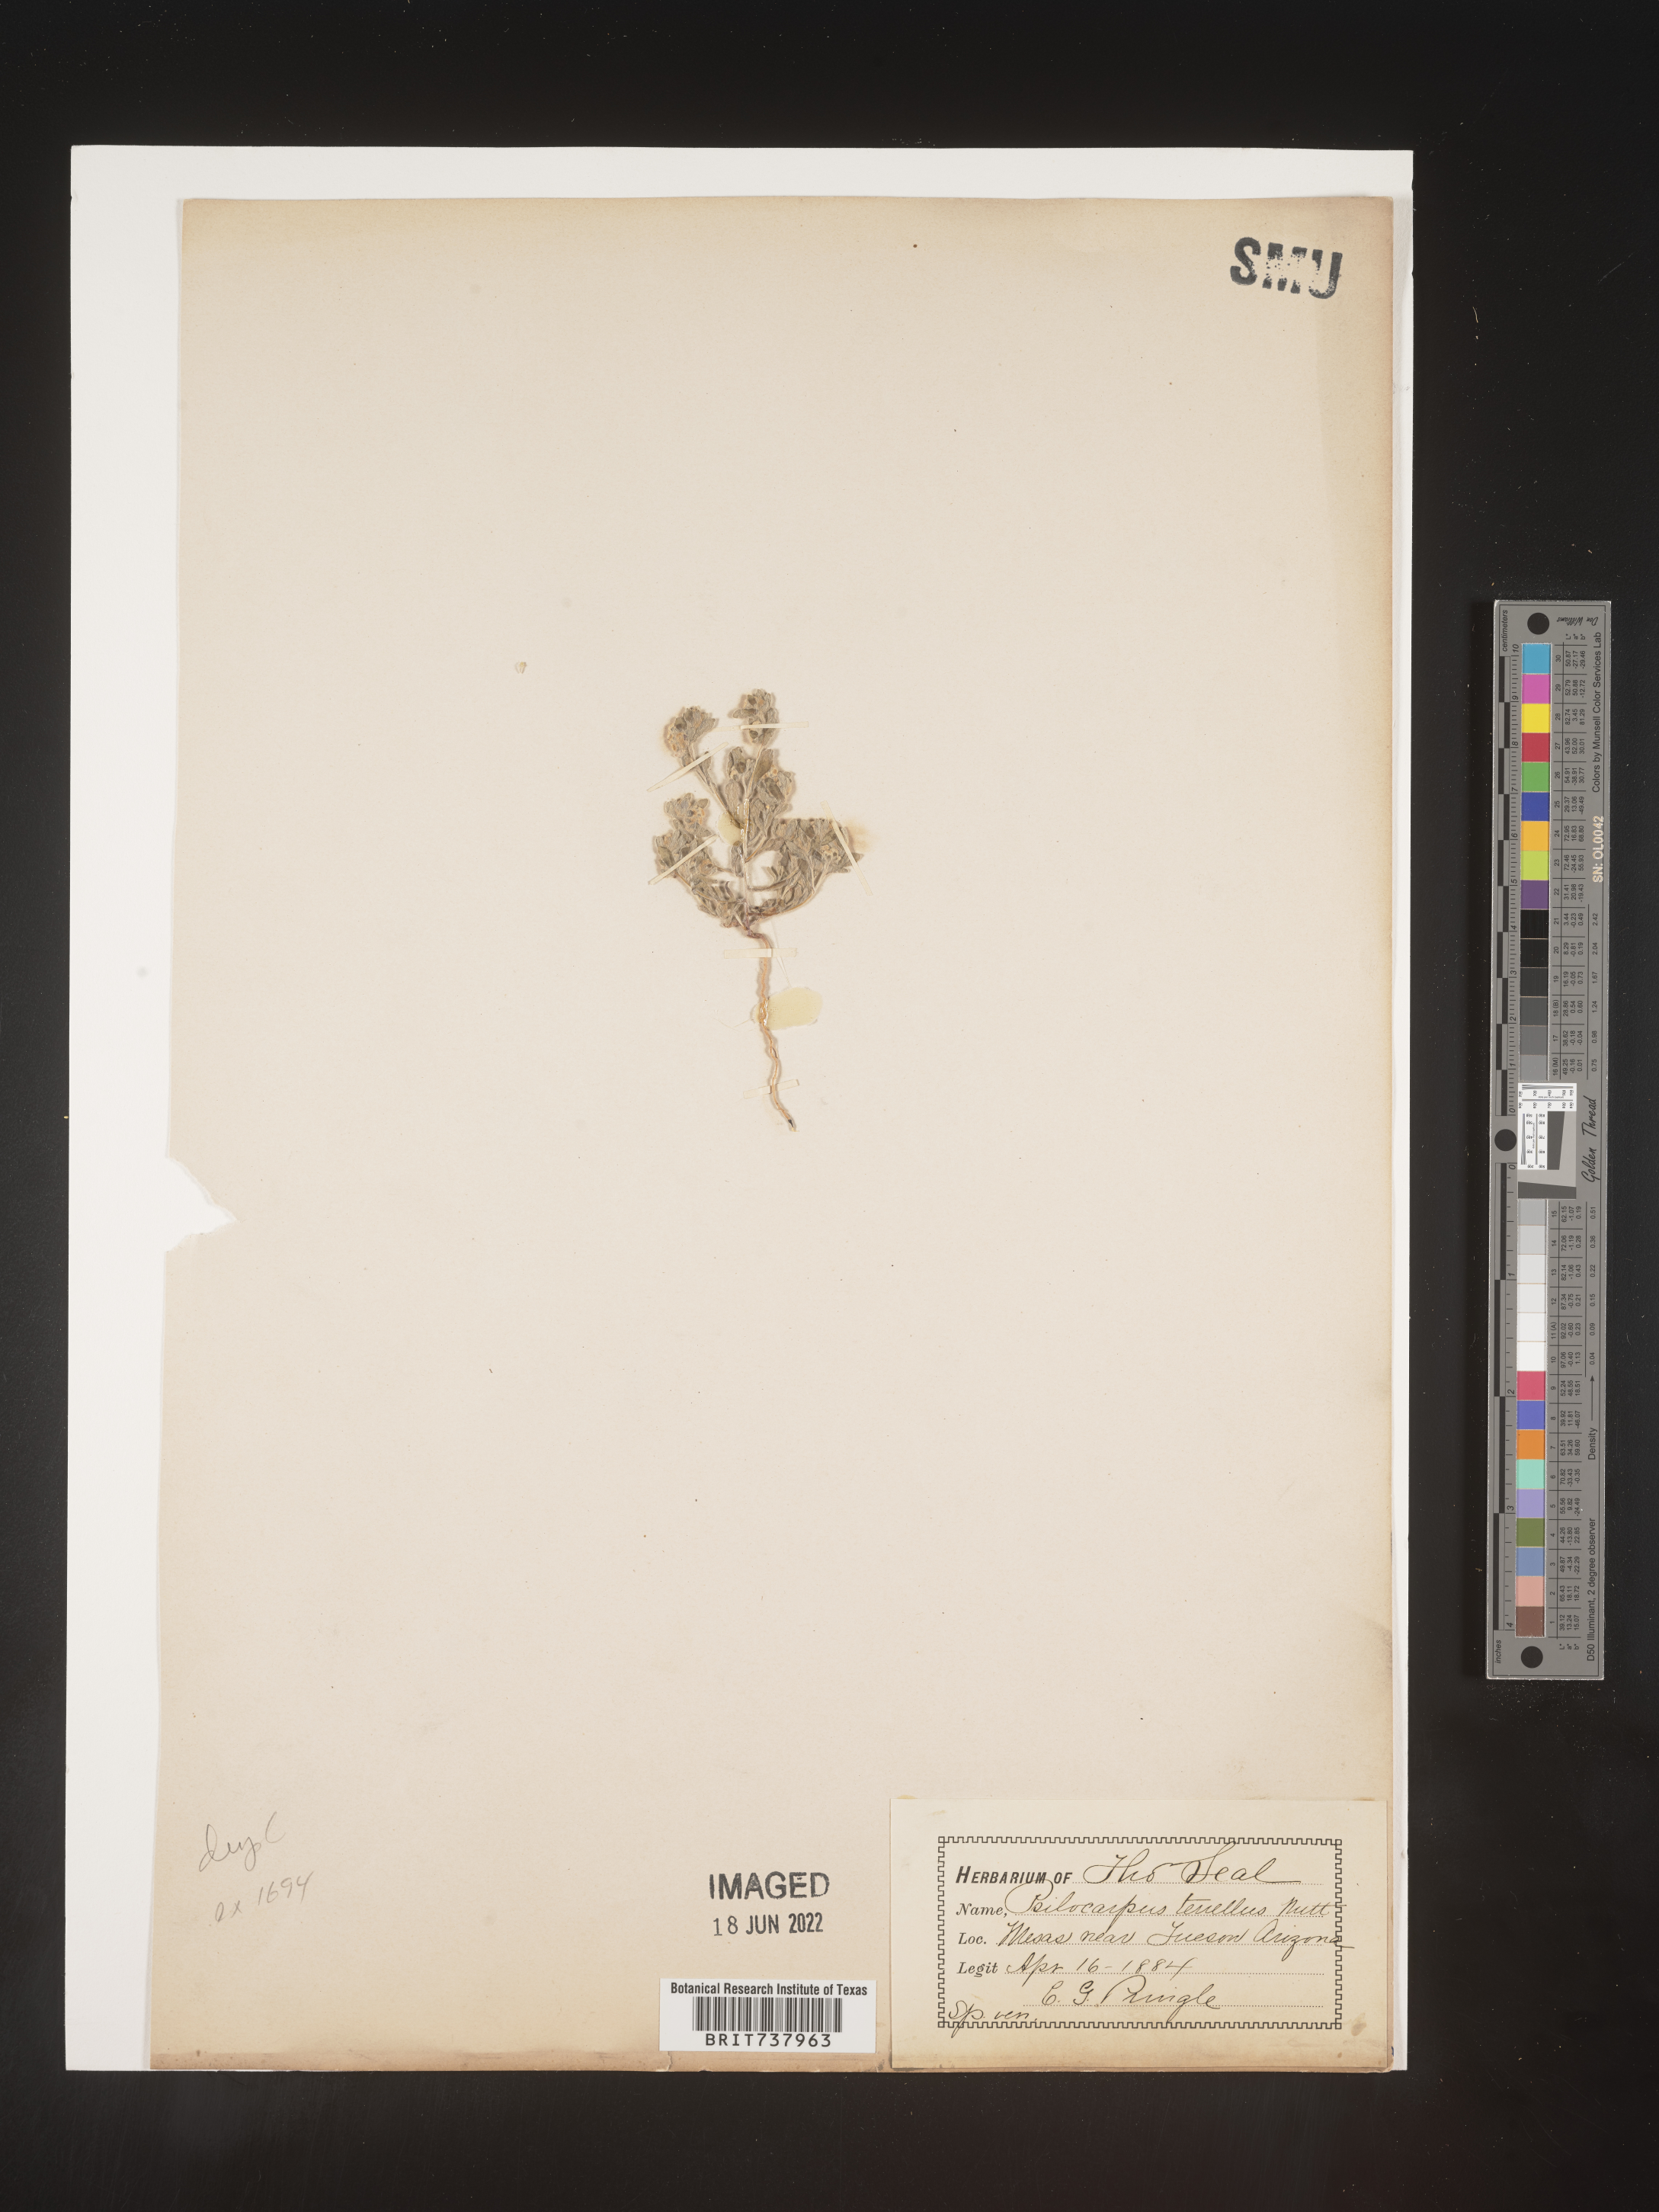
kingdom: Plantae
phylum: Tracheophyta
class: Magnoliopsida
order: Asterales
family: Asteraceae
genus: Psilocarphus
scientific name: Psilocarphus
